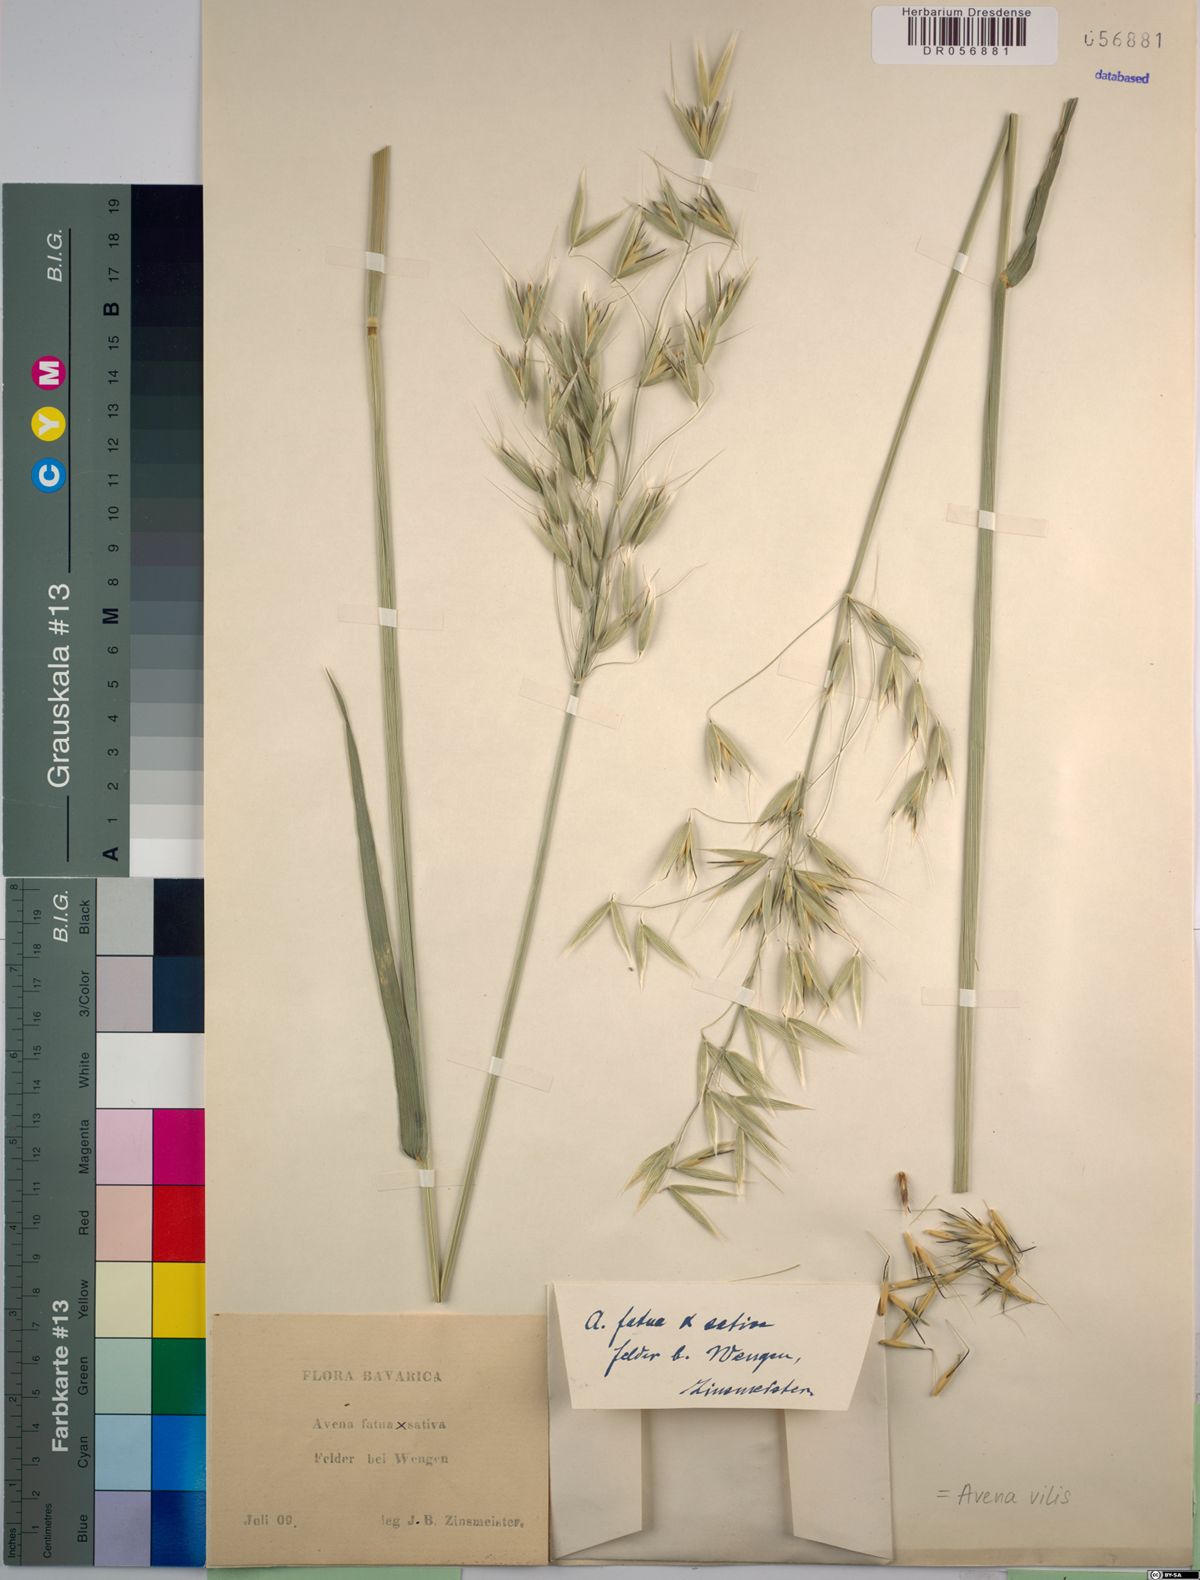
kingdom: Plantae
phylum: Tracheophyta
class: Liliopsida
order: Poales
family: Poaceae
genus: Avena
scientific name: Avena vilis
